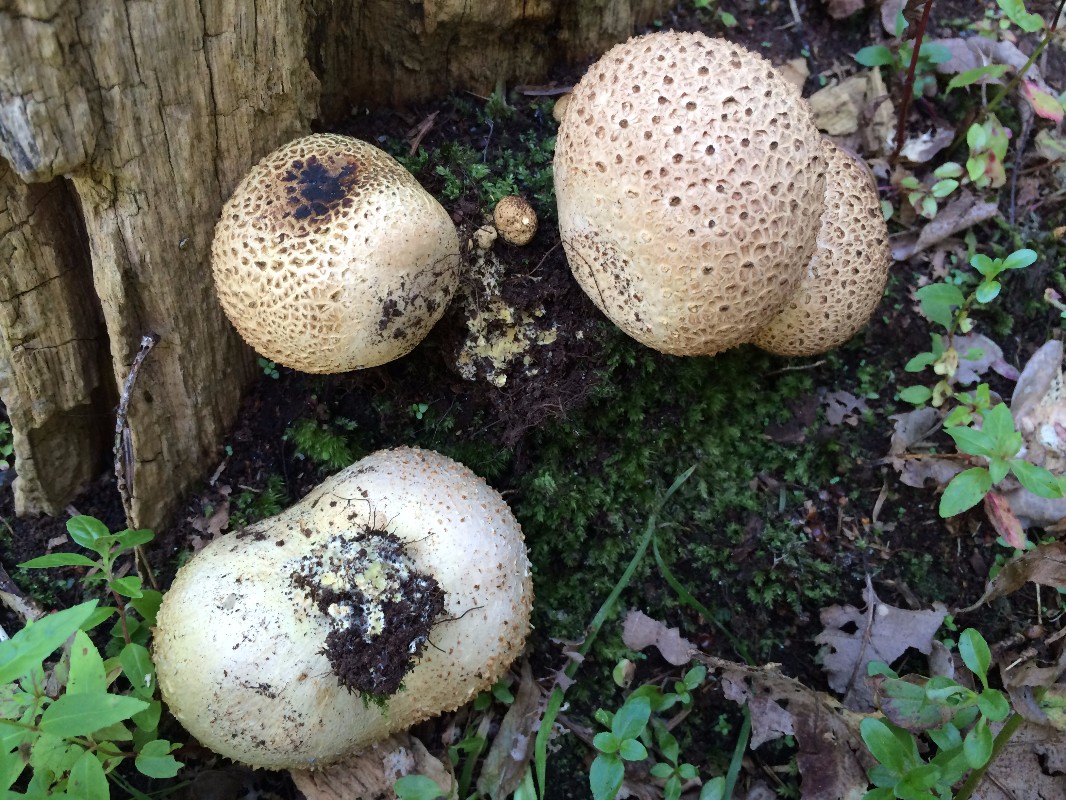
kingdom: Fungi
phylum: Basidiomycota
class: Agaricomycetes
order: Boletales
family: Sclerodermataceae
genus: Scleroderma
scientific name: Scleroderma citrinum
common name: almindelig bruskbold
